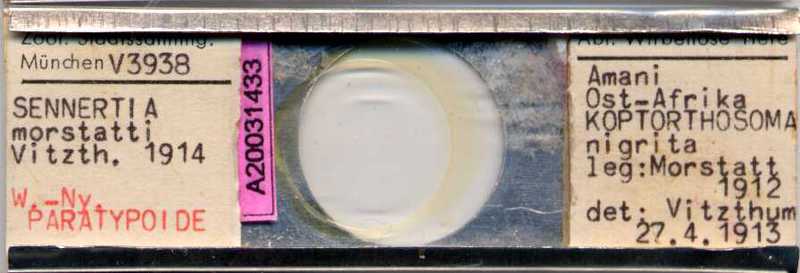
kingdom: Animalia
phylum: Arthropoda
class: Arachnida
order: Sarcoptiformes
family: Chaetodactylidae
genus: Sennertia
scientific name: Sennertia morstatti
